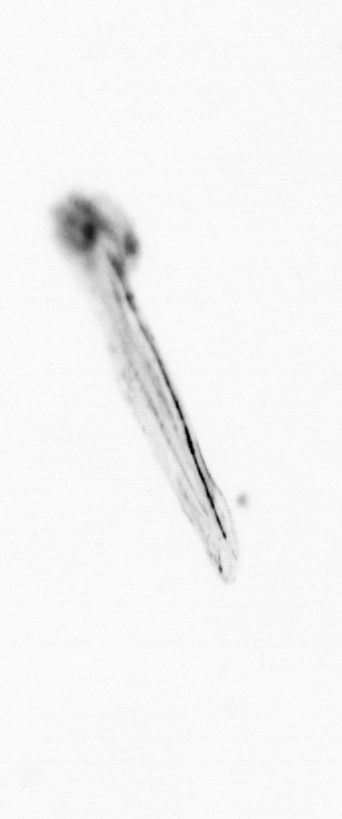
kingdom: Animalia
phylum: Chordata
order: Copelata
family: Fritillariidae
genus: Appendicularia
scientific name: Appendicularia
